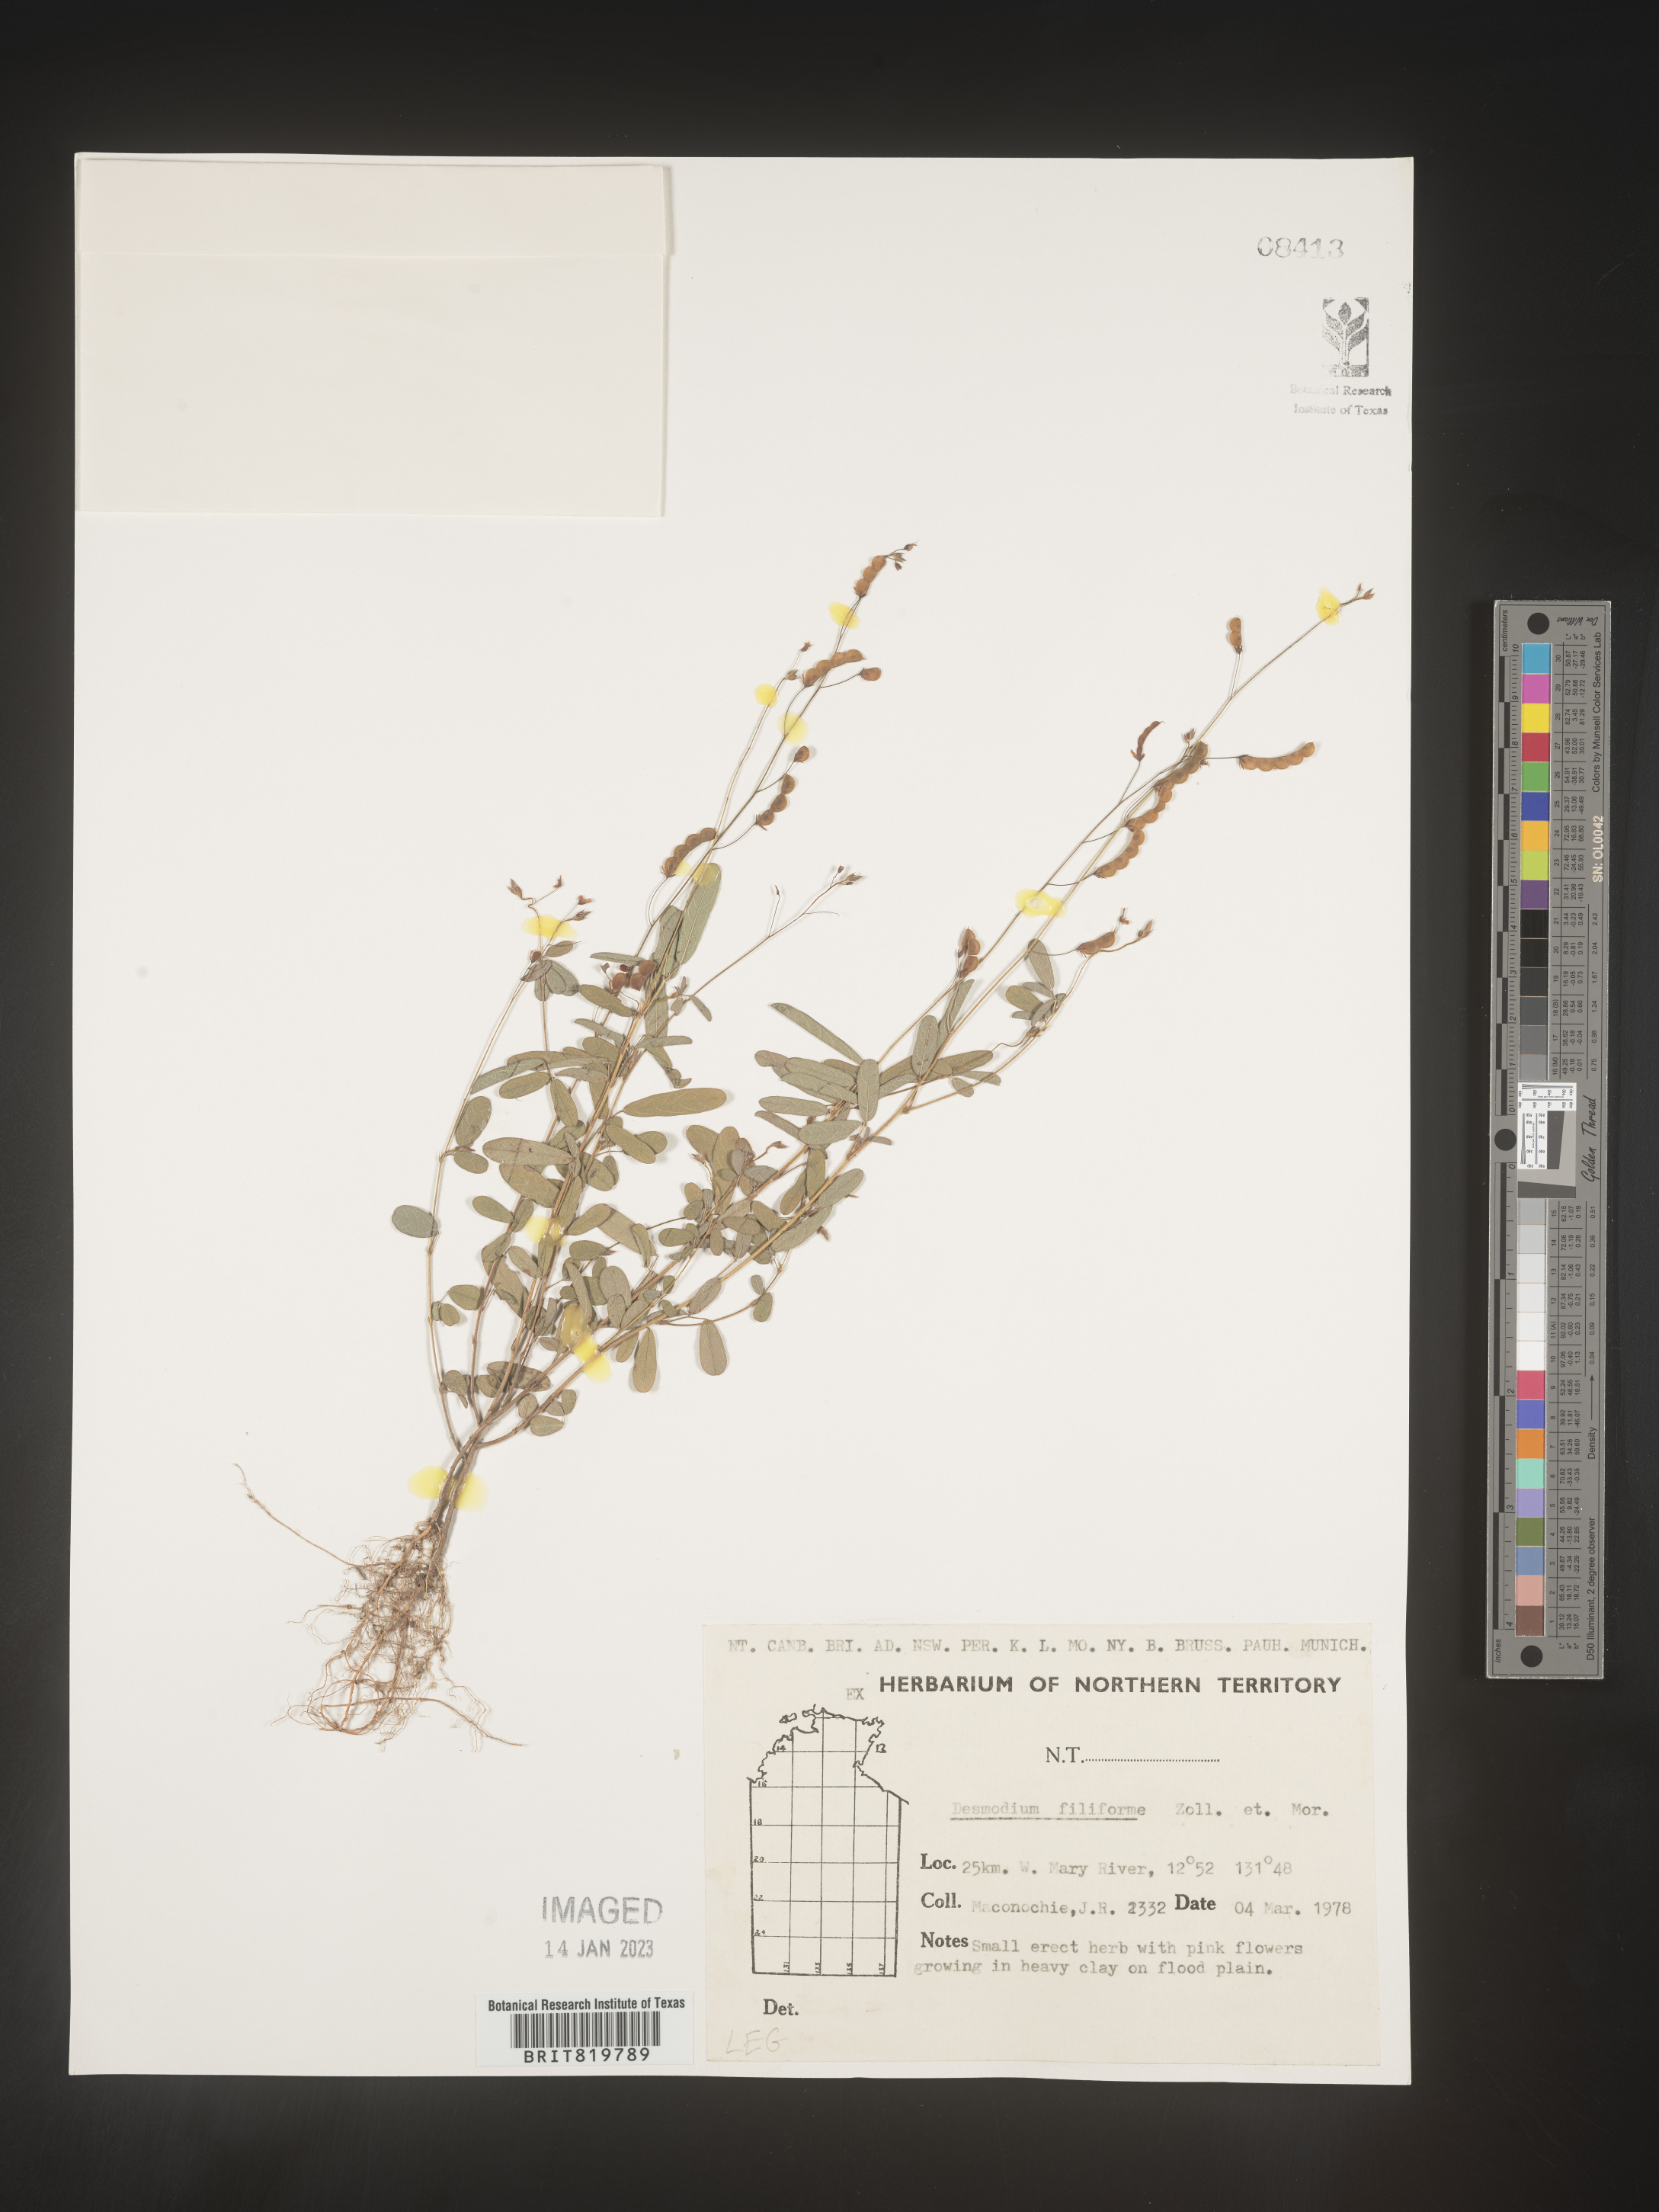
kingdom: Plantae
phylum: Tracheophyta
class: Magnoliopsida
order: Fabales
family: Fabaceae
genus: Desmodium
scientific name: Desmodium
